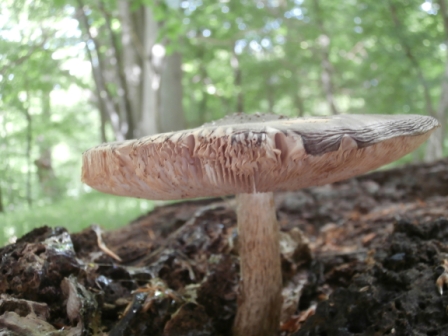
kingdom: Fungi
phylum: Basidiomycota
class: Agaricomycetes
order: Agaricales
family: Pluteaceae
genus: Pluteus
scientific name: Pluteus cervinus
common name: sodfarvet skærmhat
